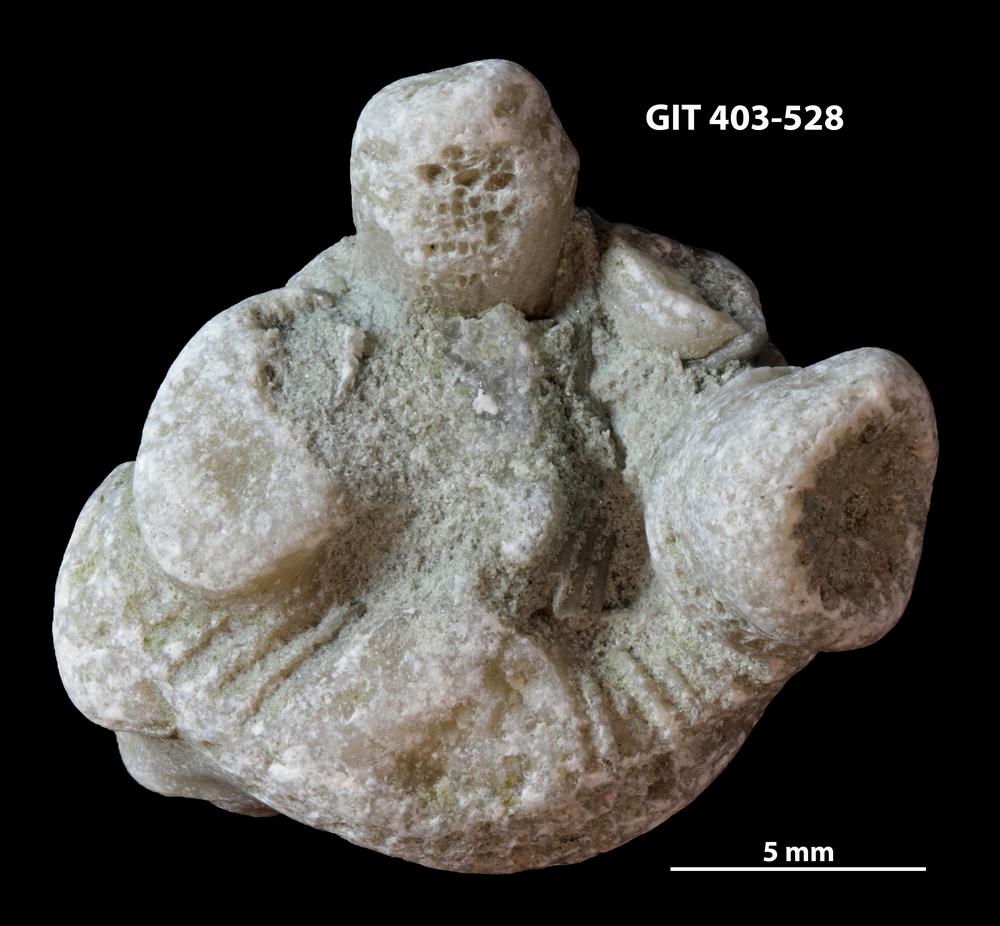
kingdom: Animalia
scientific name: Animalia
